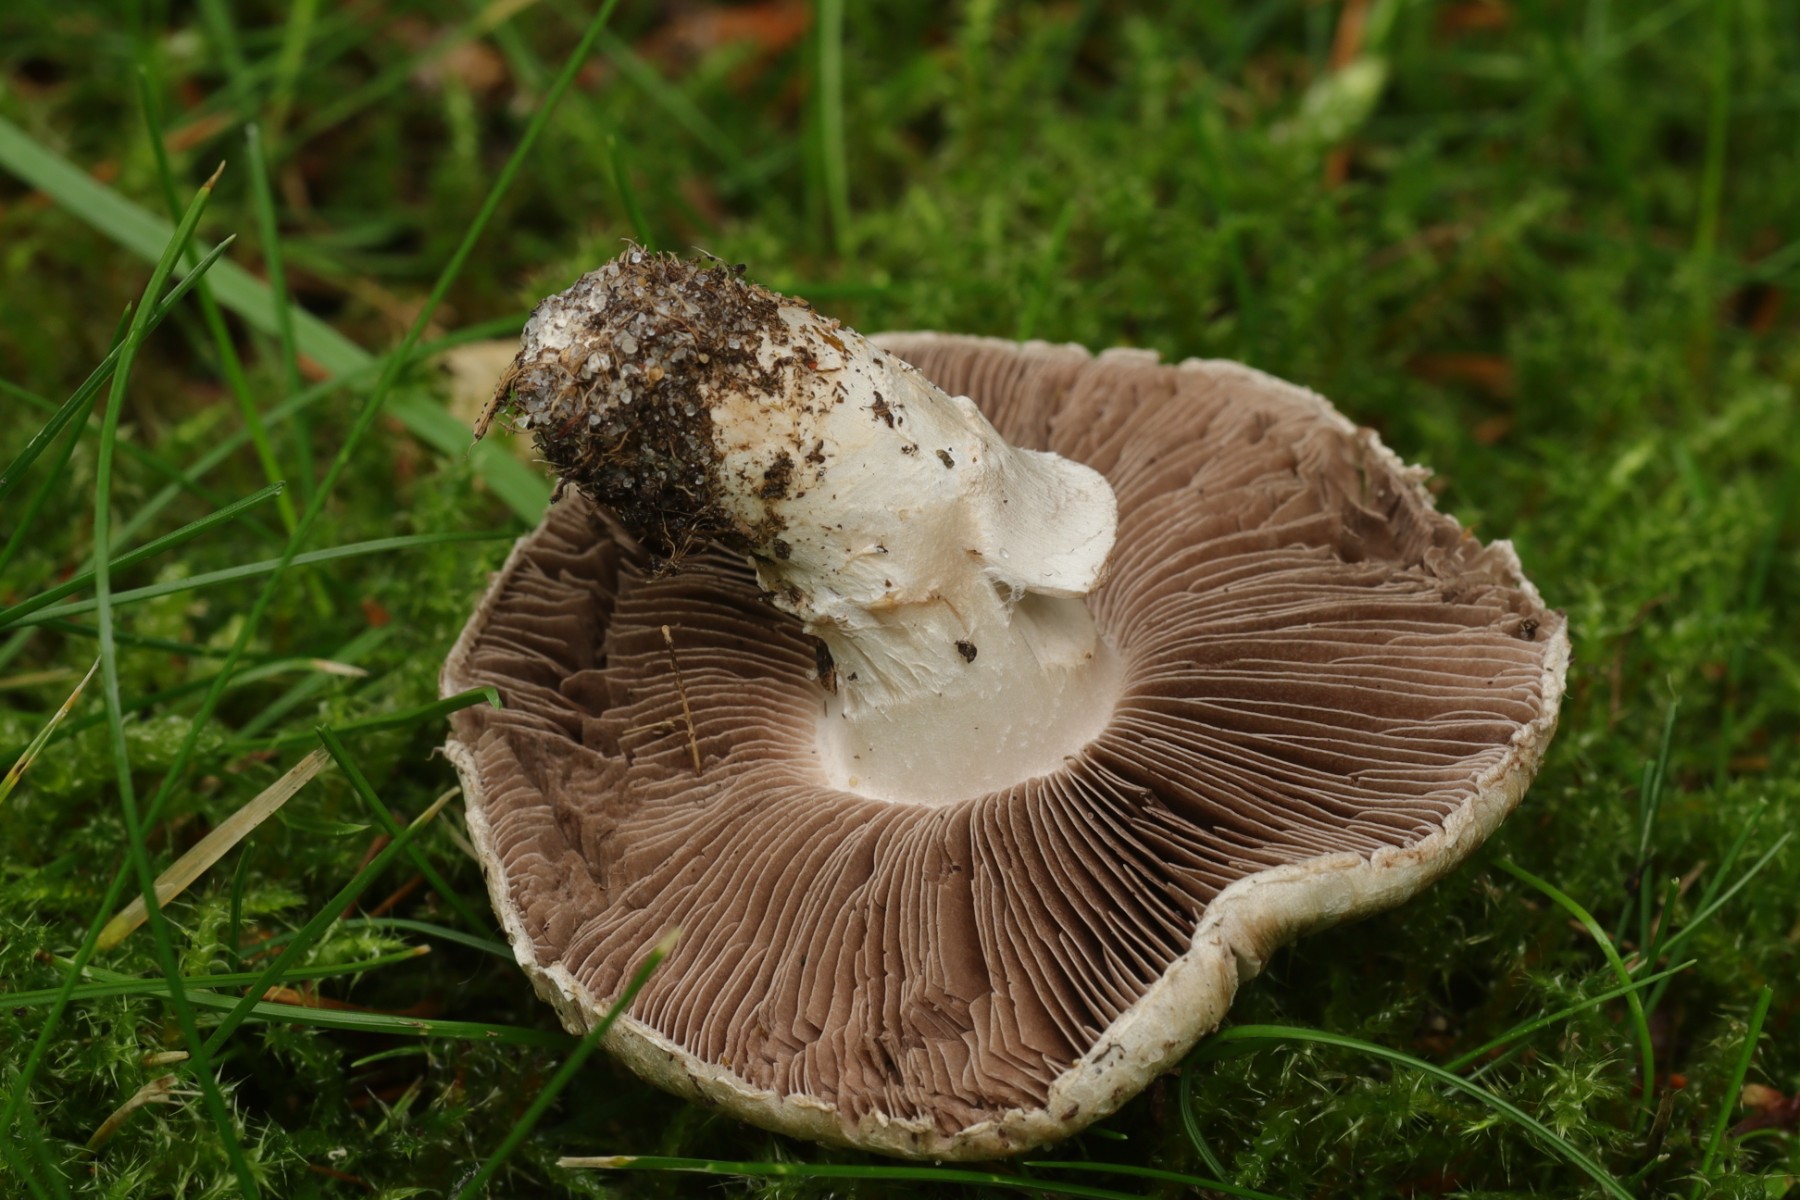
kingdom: Fungi
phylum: Basidiomycota
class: Agaricomycetes
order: Agaricales
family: Agaricaceae
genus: Agaricus
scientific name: Agaricus
